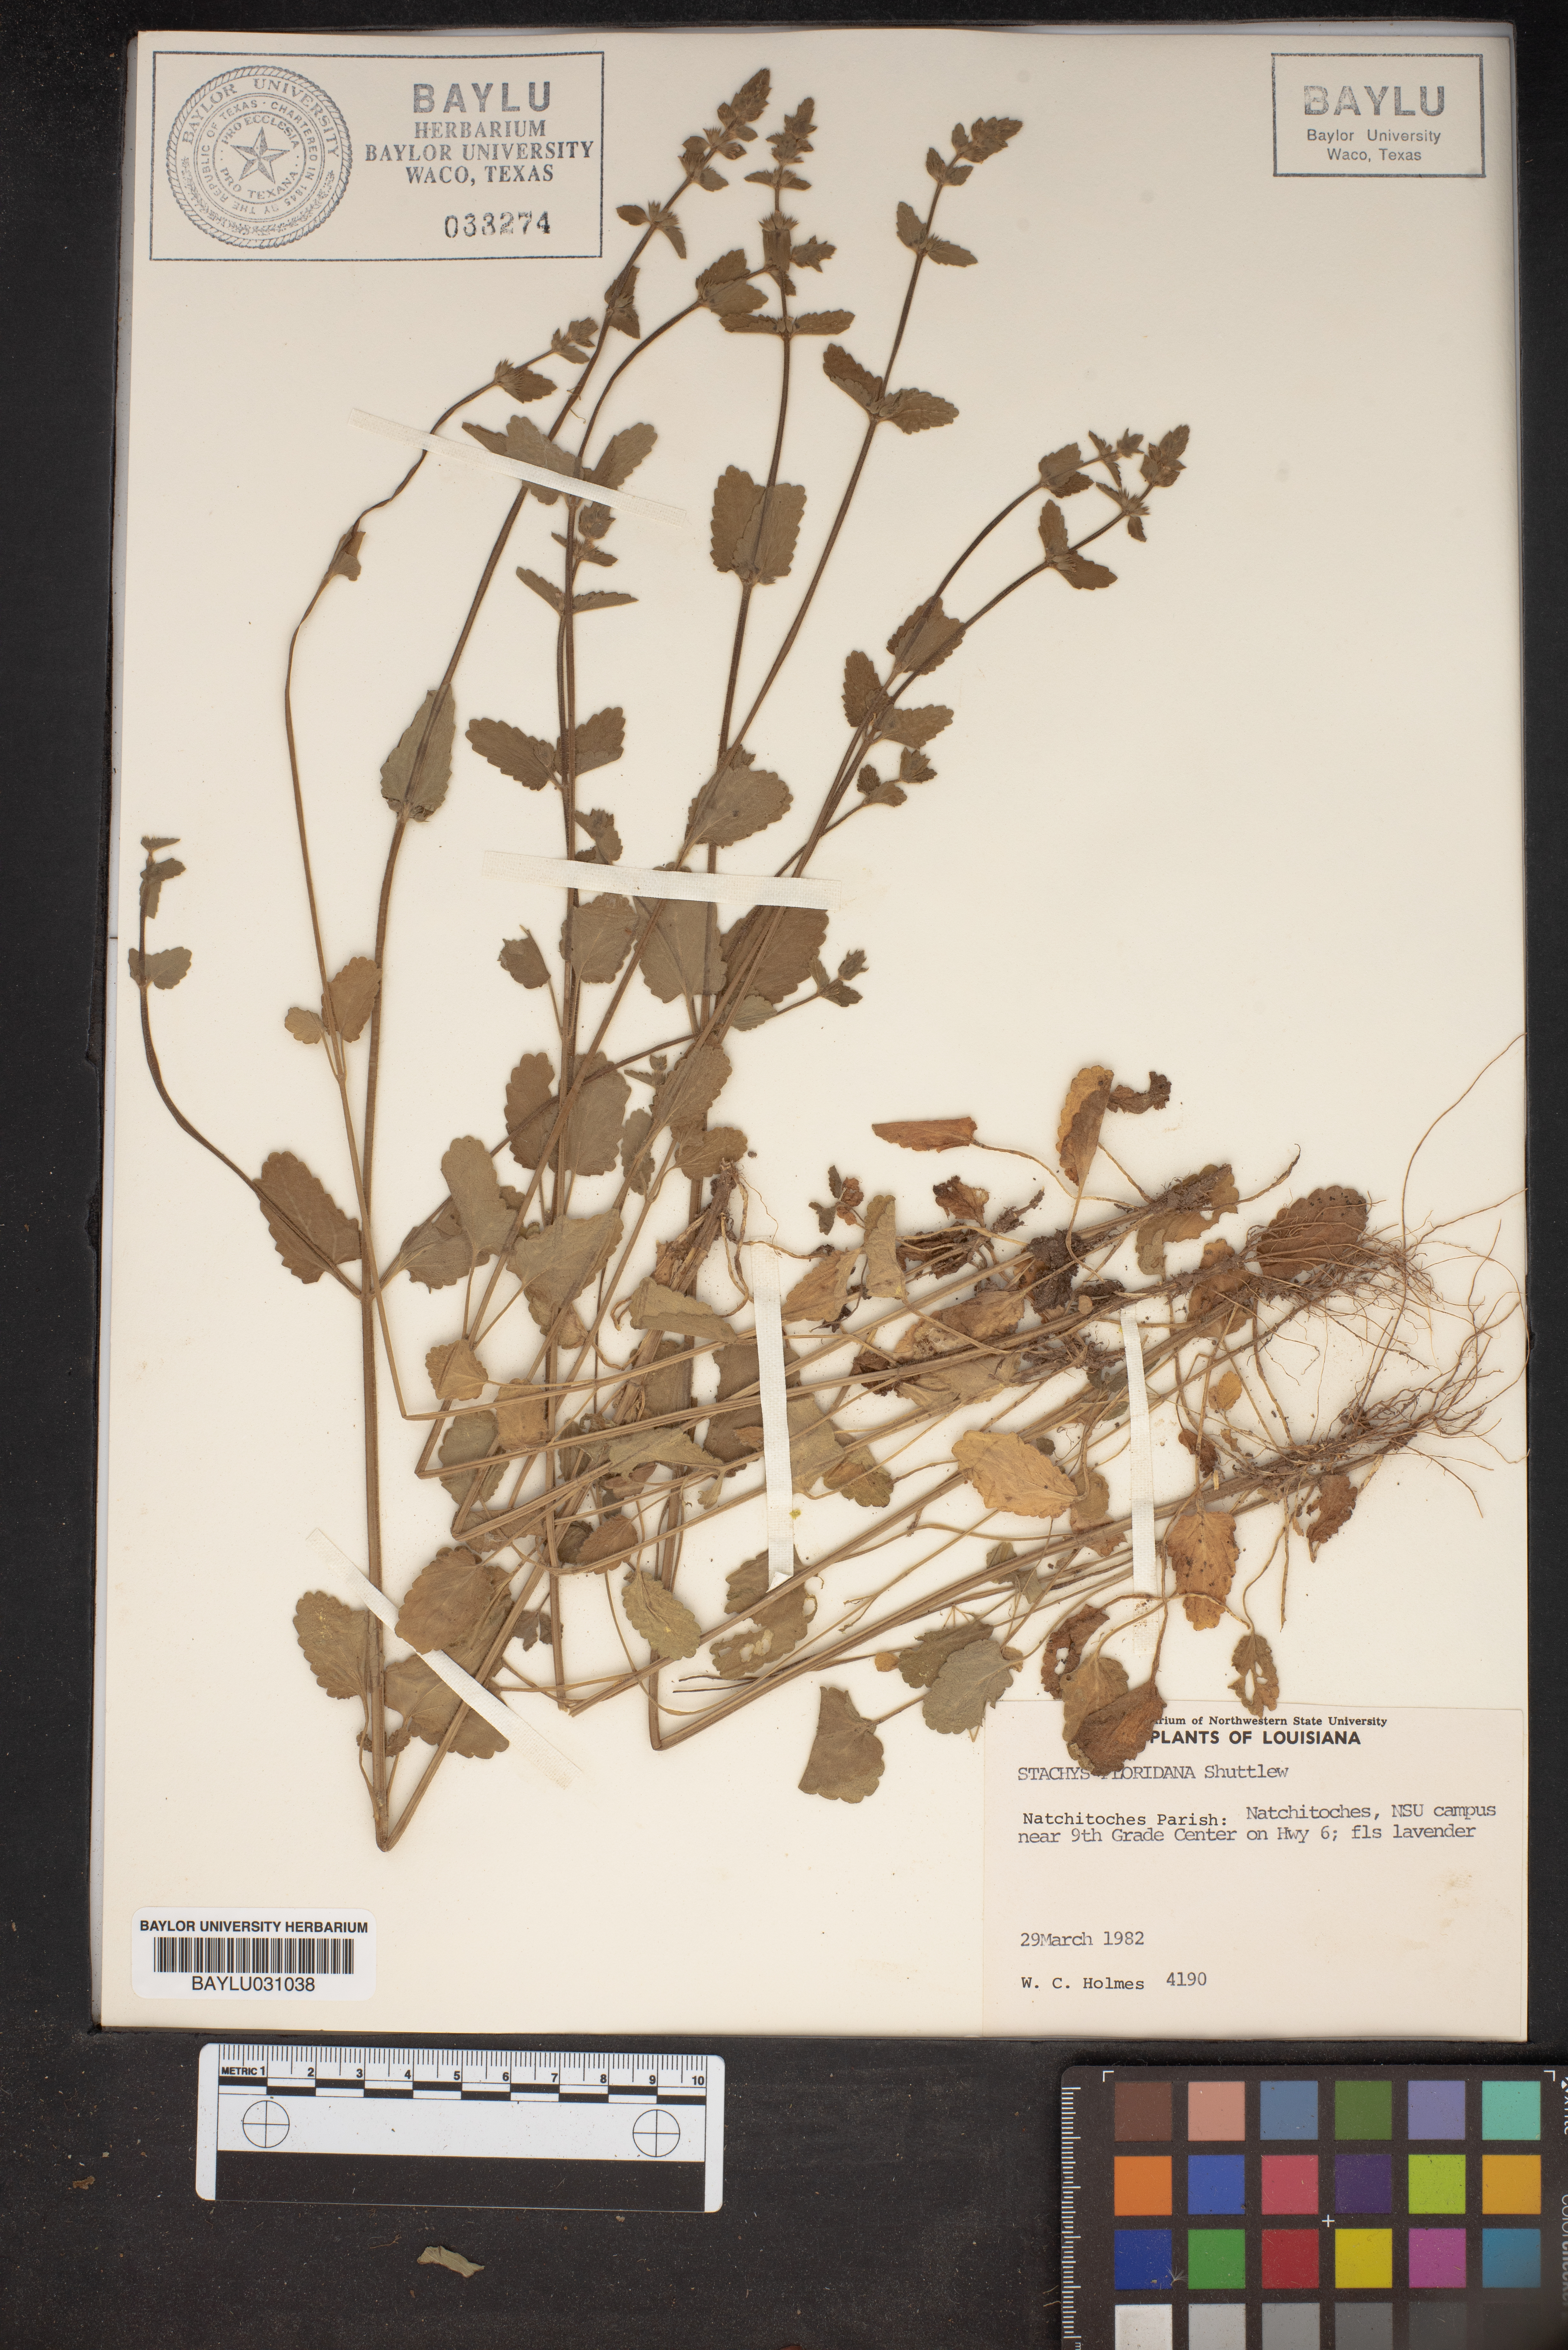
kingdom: Plantae
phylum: Tracheophyta
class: Magnoliopsida
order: Lamiales
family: Lamiaceae
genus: Stachys
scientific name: Stachys floridana
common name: Florida betony
